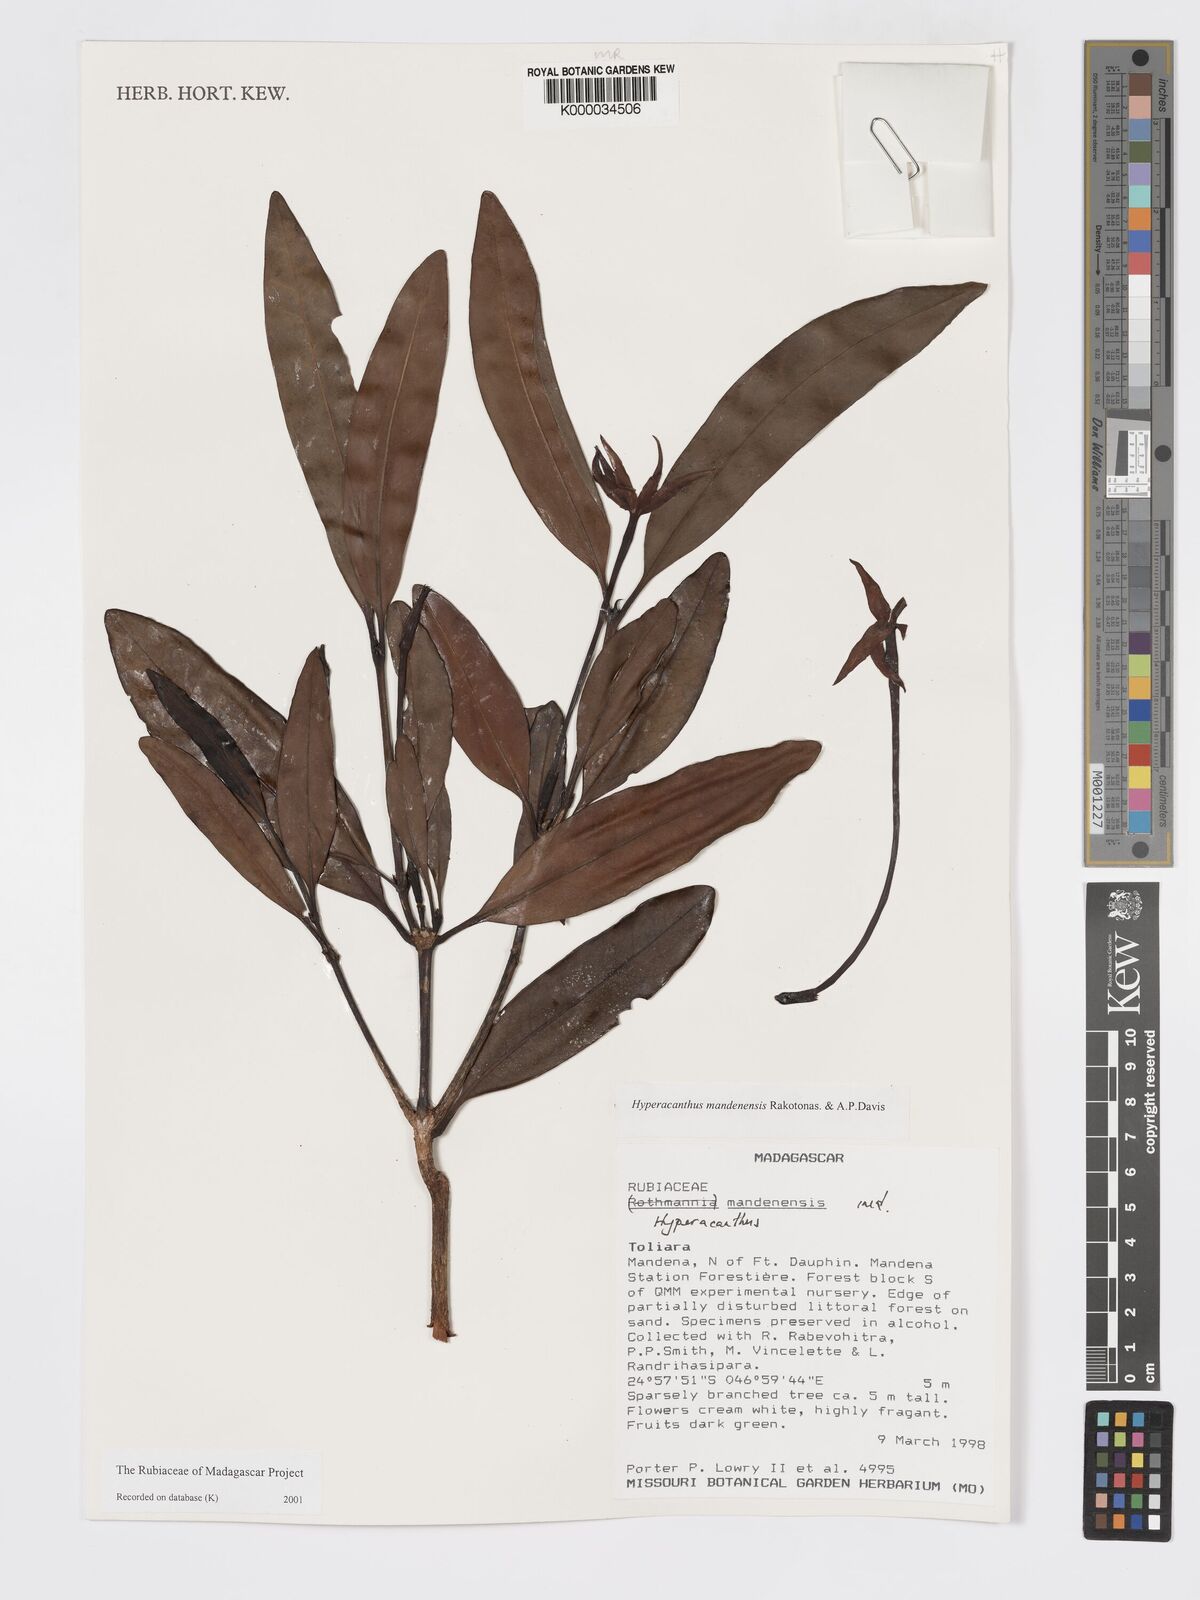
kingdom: Plantae
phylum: Tracheophyta
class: Magnoliopsida
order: Gentianales
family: Rubiaceae
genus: Hyperacanthus
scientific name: Hyperacanthus mandenensis
